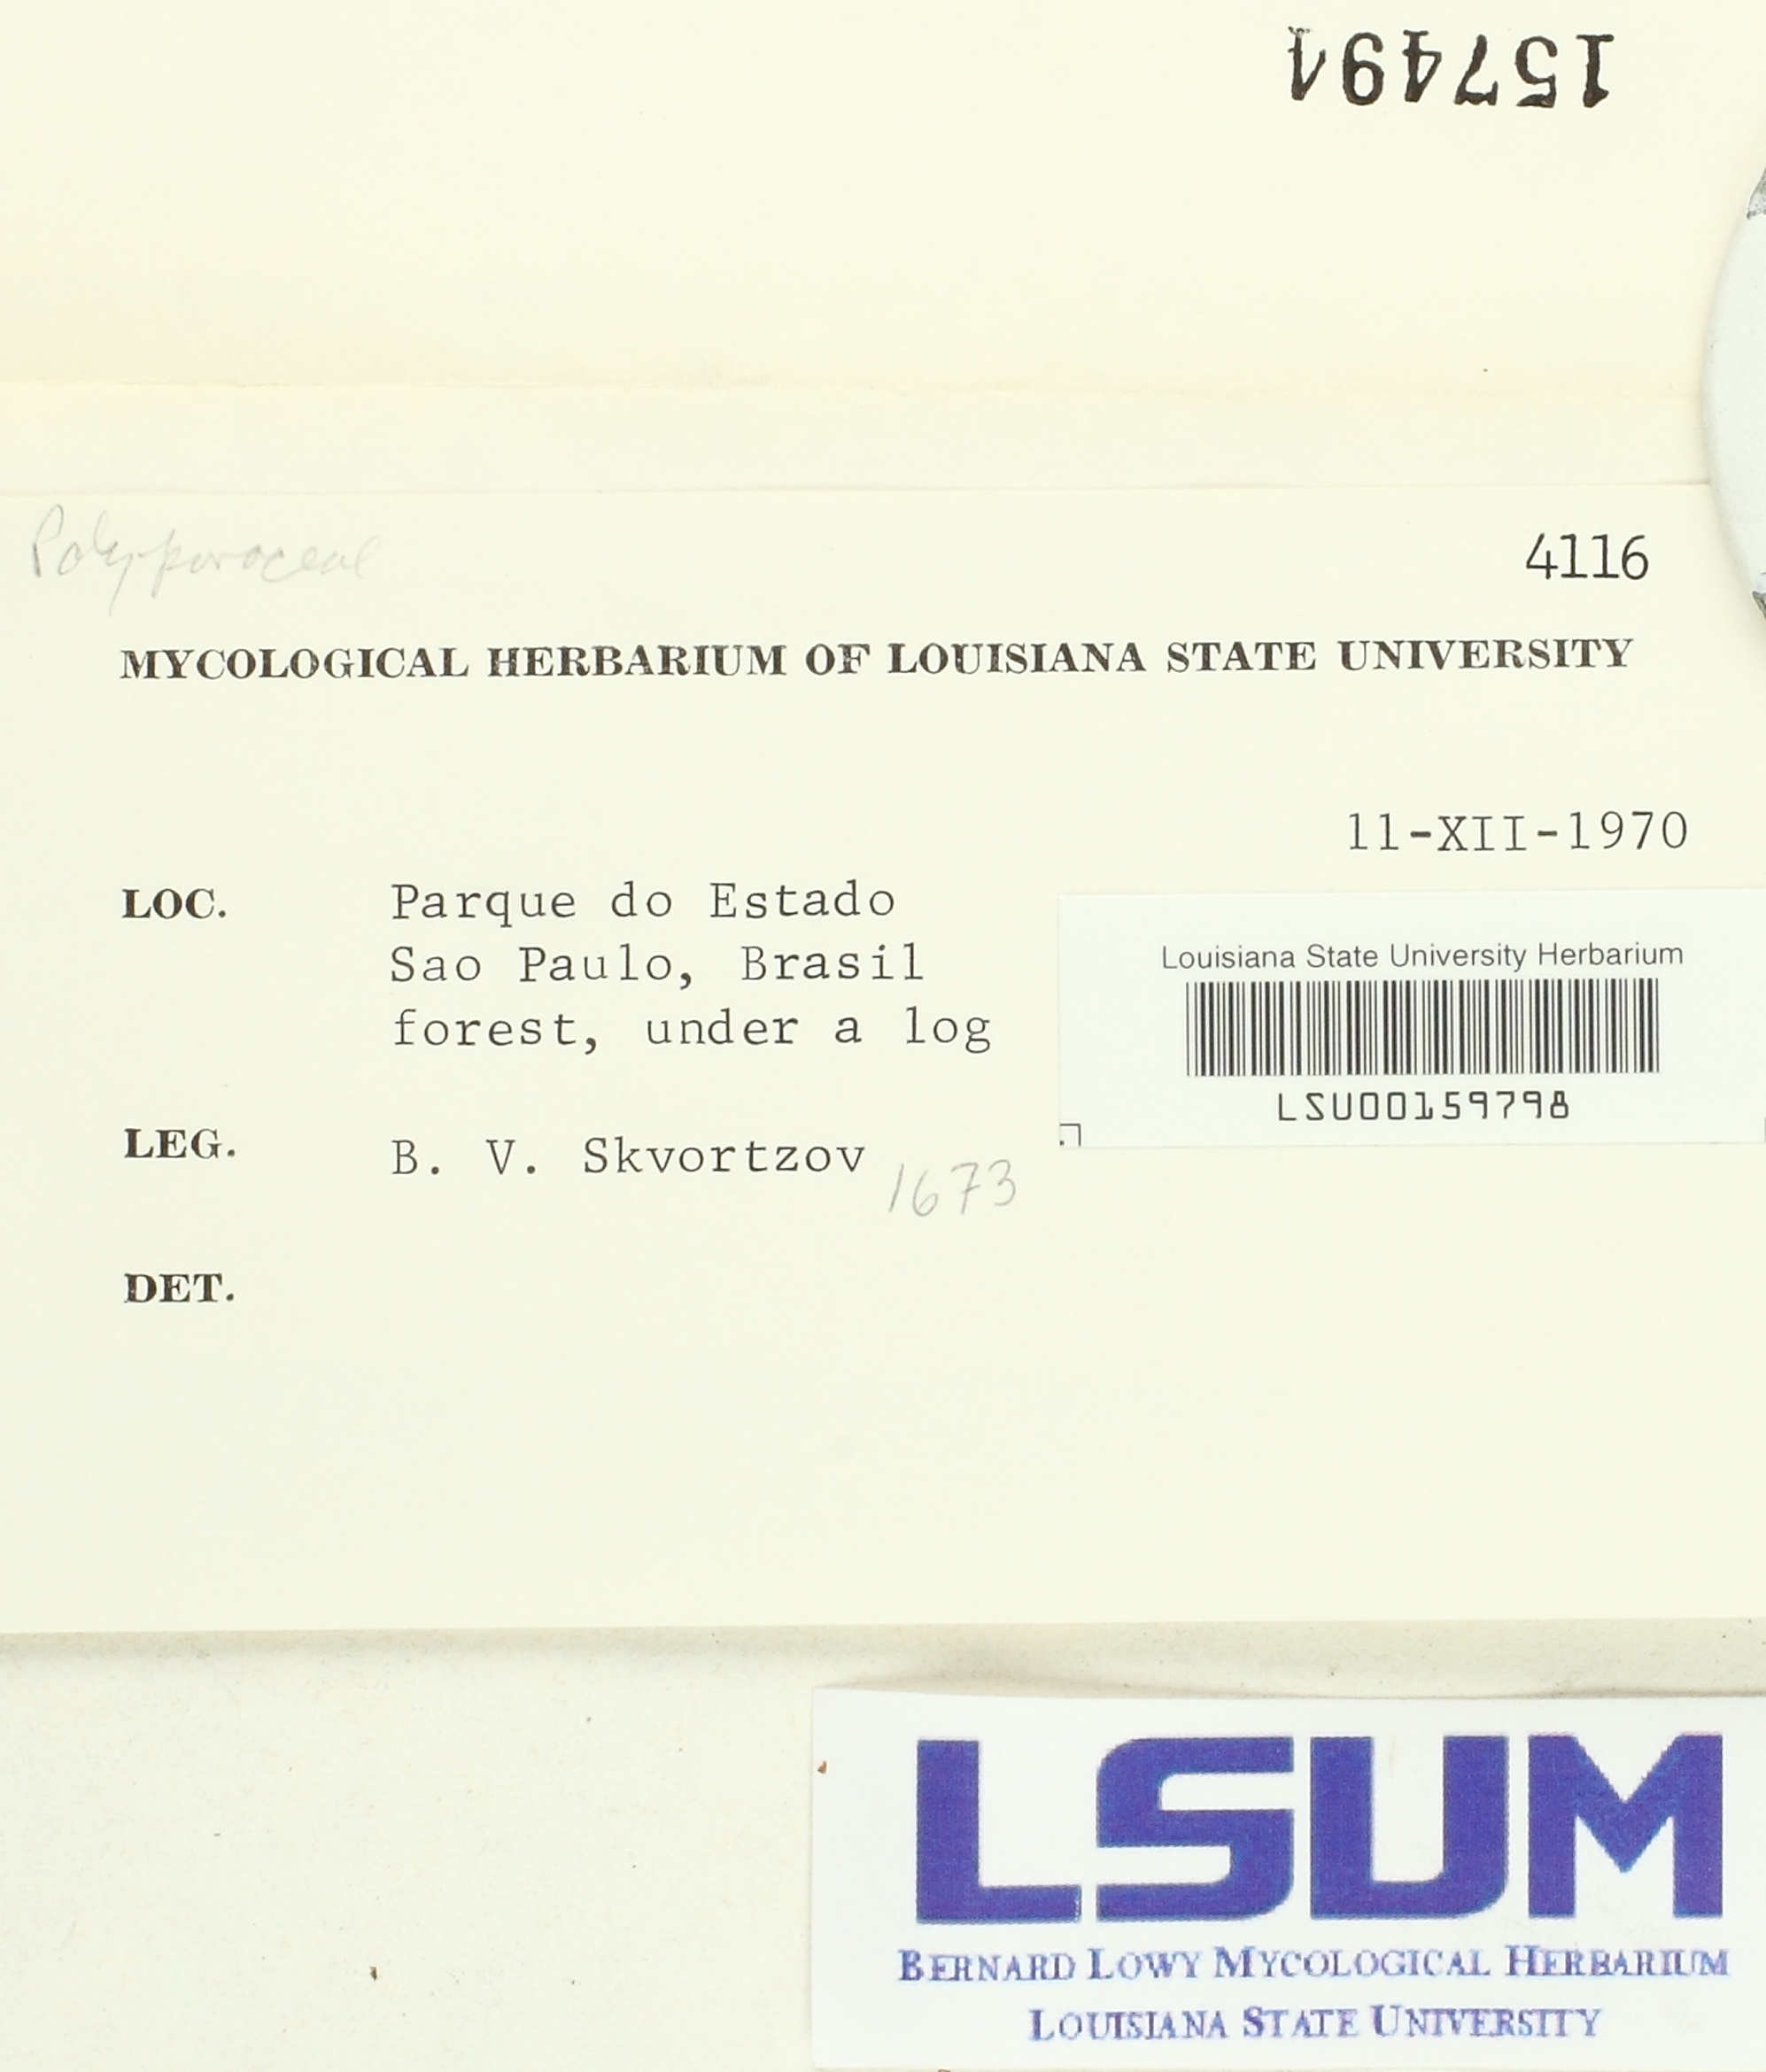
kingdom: Fungi
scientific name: Fungi
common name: Fungi
